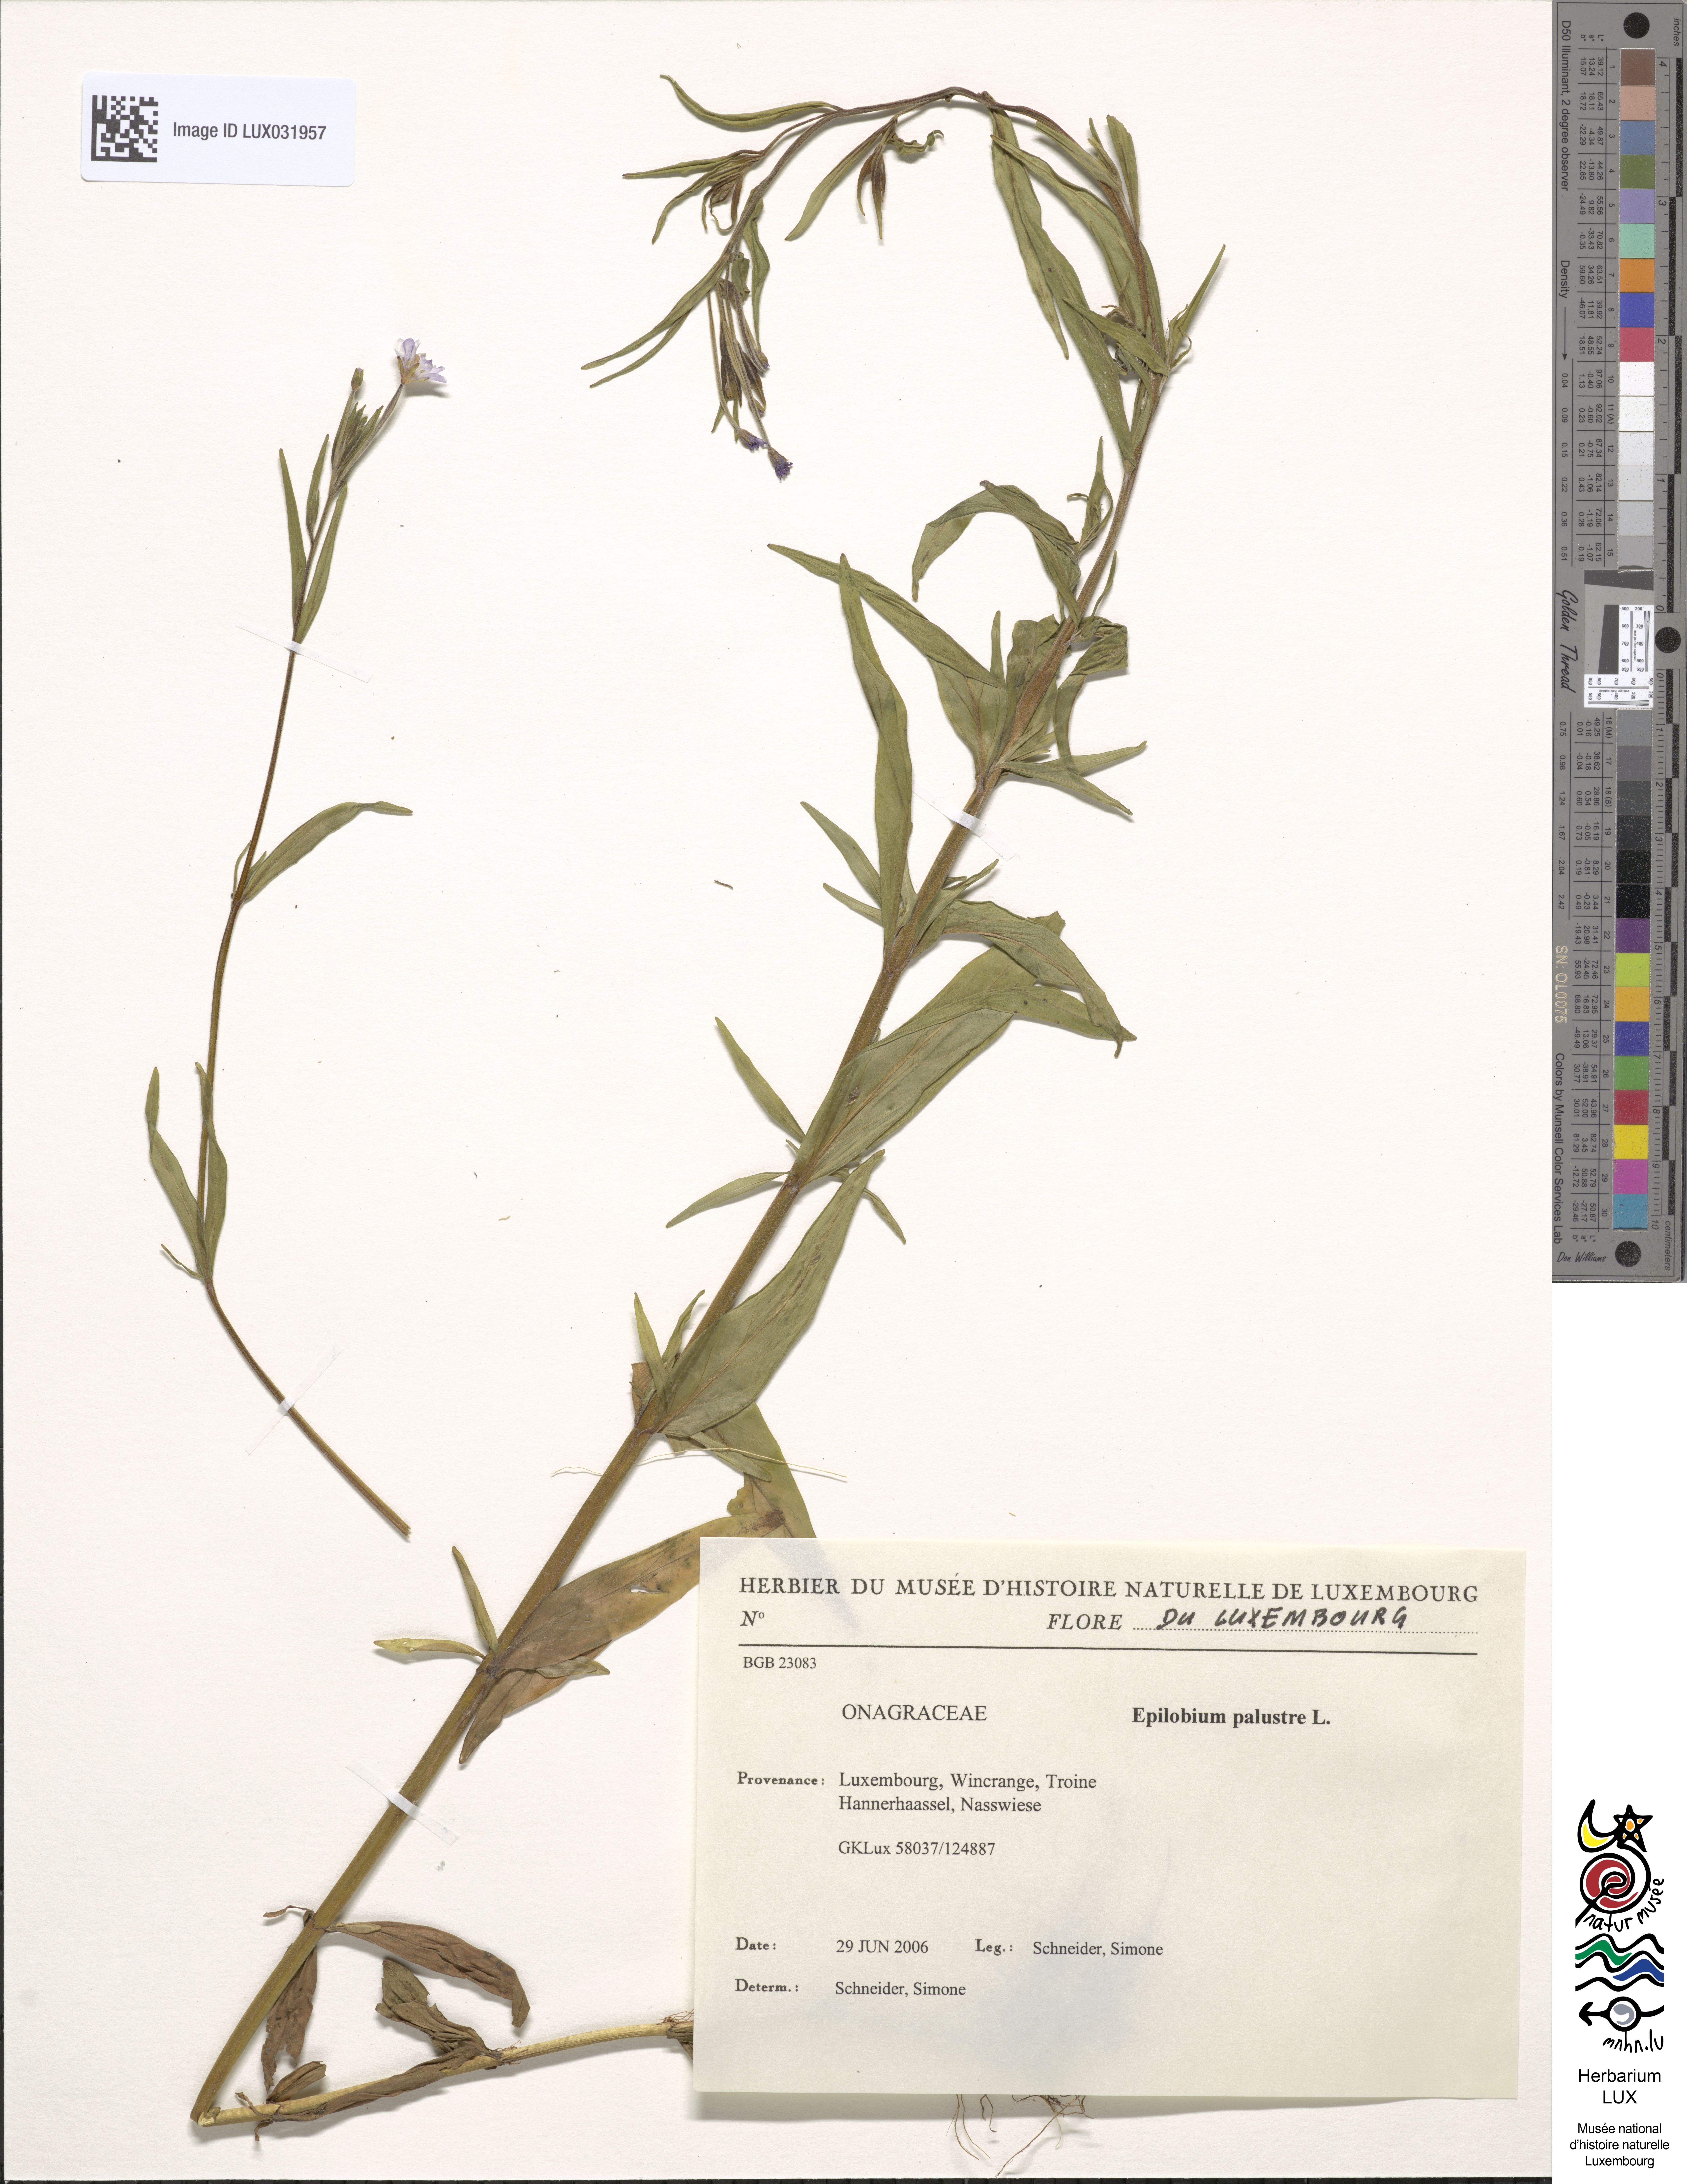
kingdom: Plantae
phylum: Tracheophyta
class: Magnoliopsida
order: Myrtales
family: Onagraceae
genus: Epilobium
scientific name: Epilobium palustre
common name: Marsh willowherb
